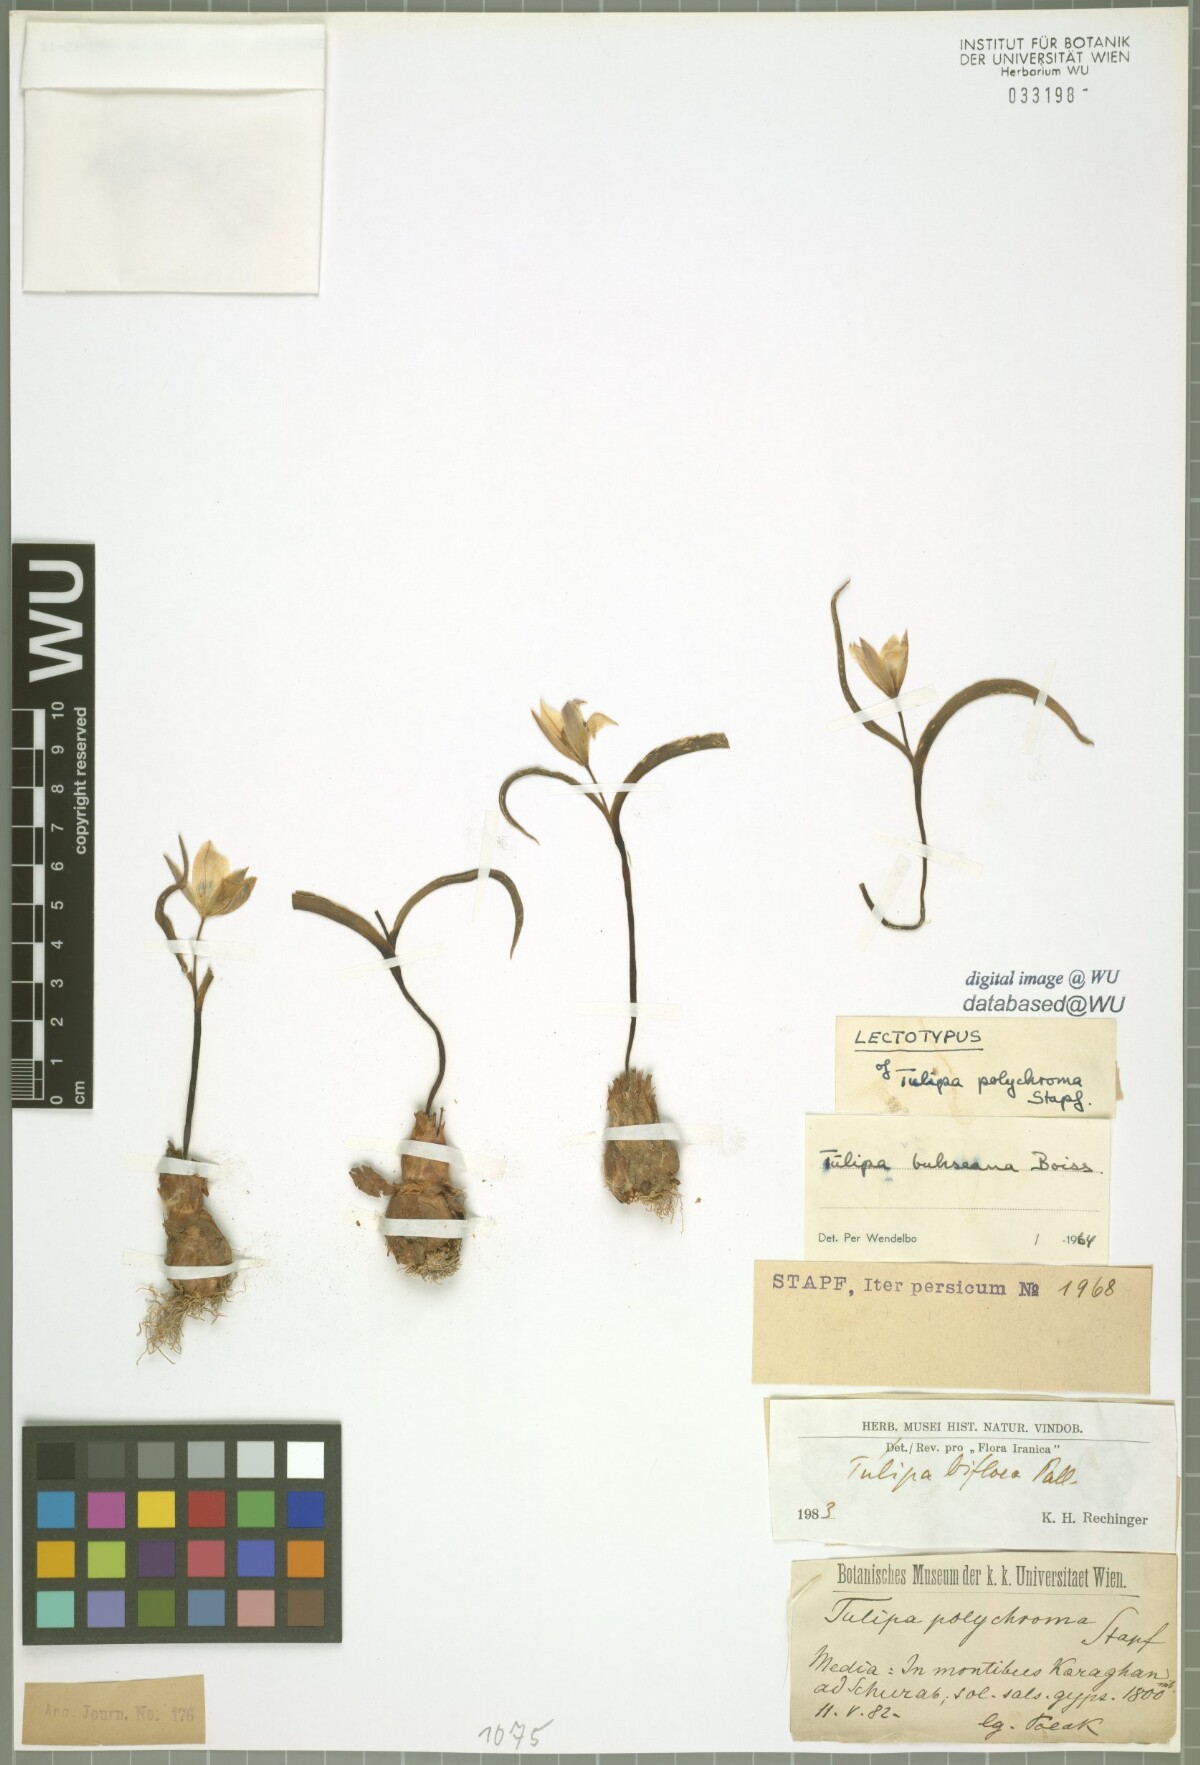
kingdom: Plantae
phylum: Tracheophyta
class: Liliopsida
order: Liliales
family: Liliaceae
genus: Tulipa
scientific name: Tulipa biflora
